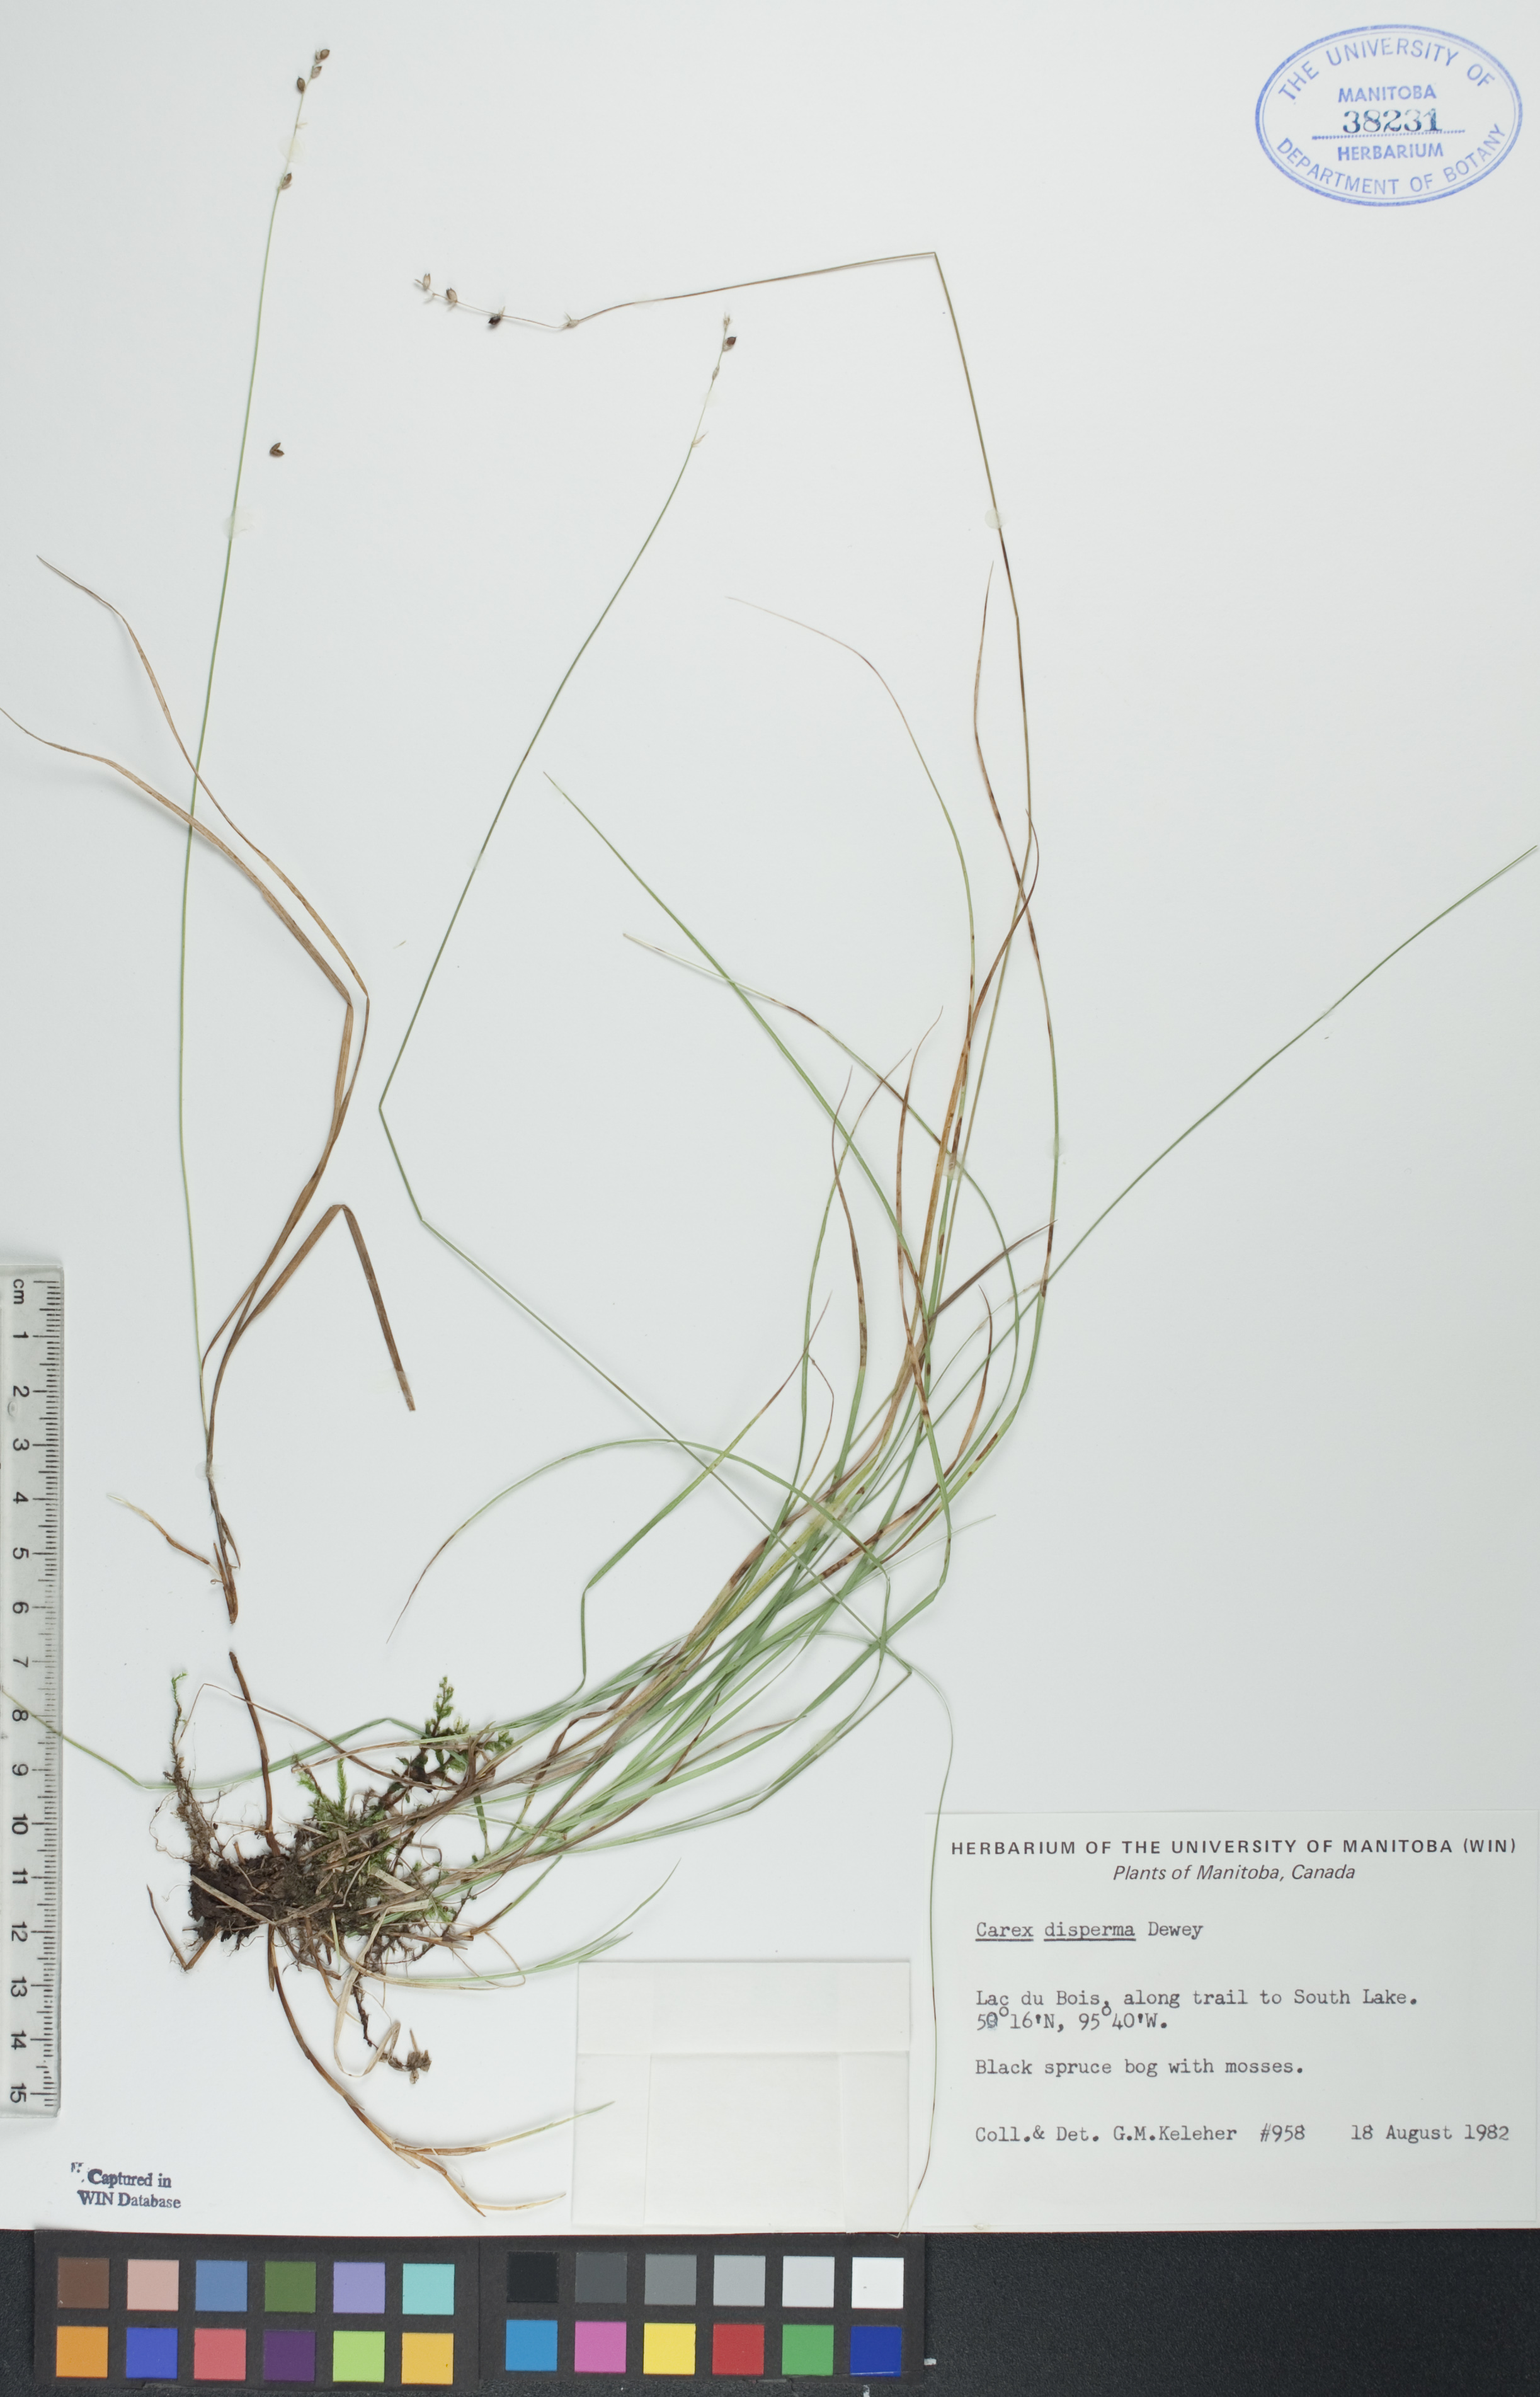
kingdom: Plantae
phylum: Tracheophyta
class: Liliopsida
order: Poales
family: Cyperaceae
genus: Carex
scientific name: Carex disperma
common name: Short-leaved sedge
